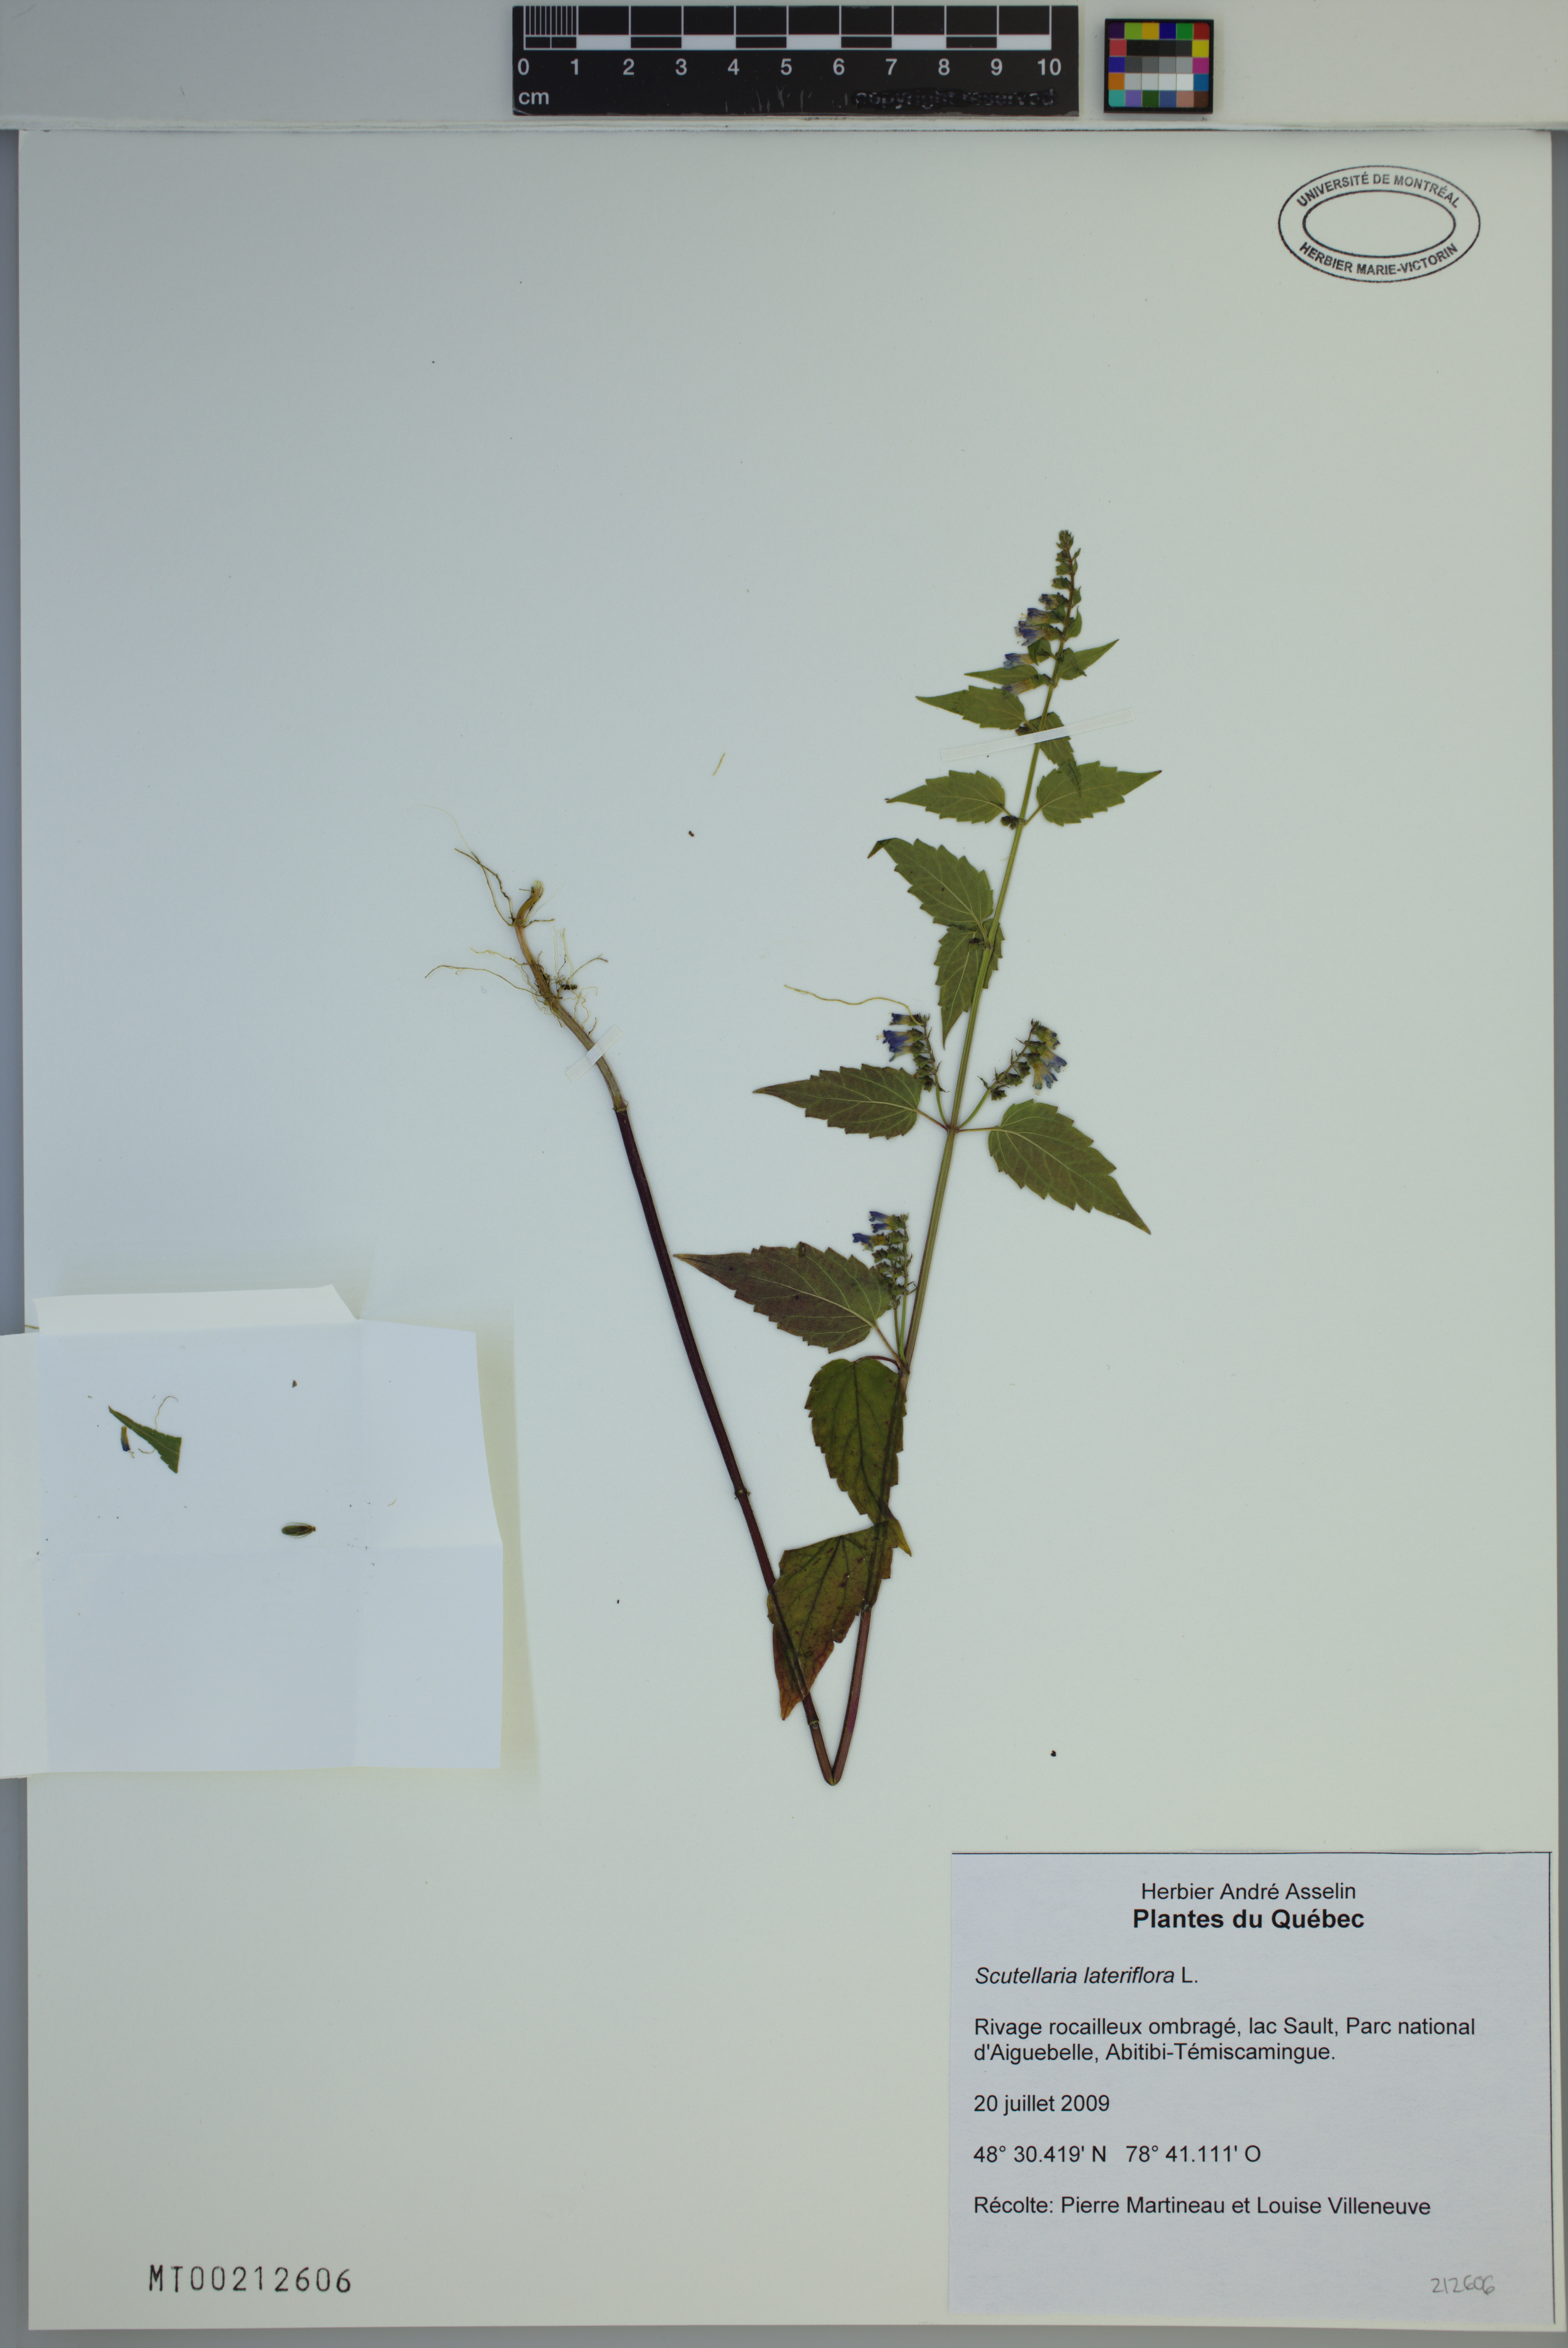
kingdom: Plantae
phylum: Tracheophyta
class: Magnoliopsida
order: Lamiales
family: Lamiaceae
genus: Scutellaria
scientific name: Scutellaria lateriflora
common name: Blue skullcap
